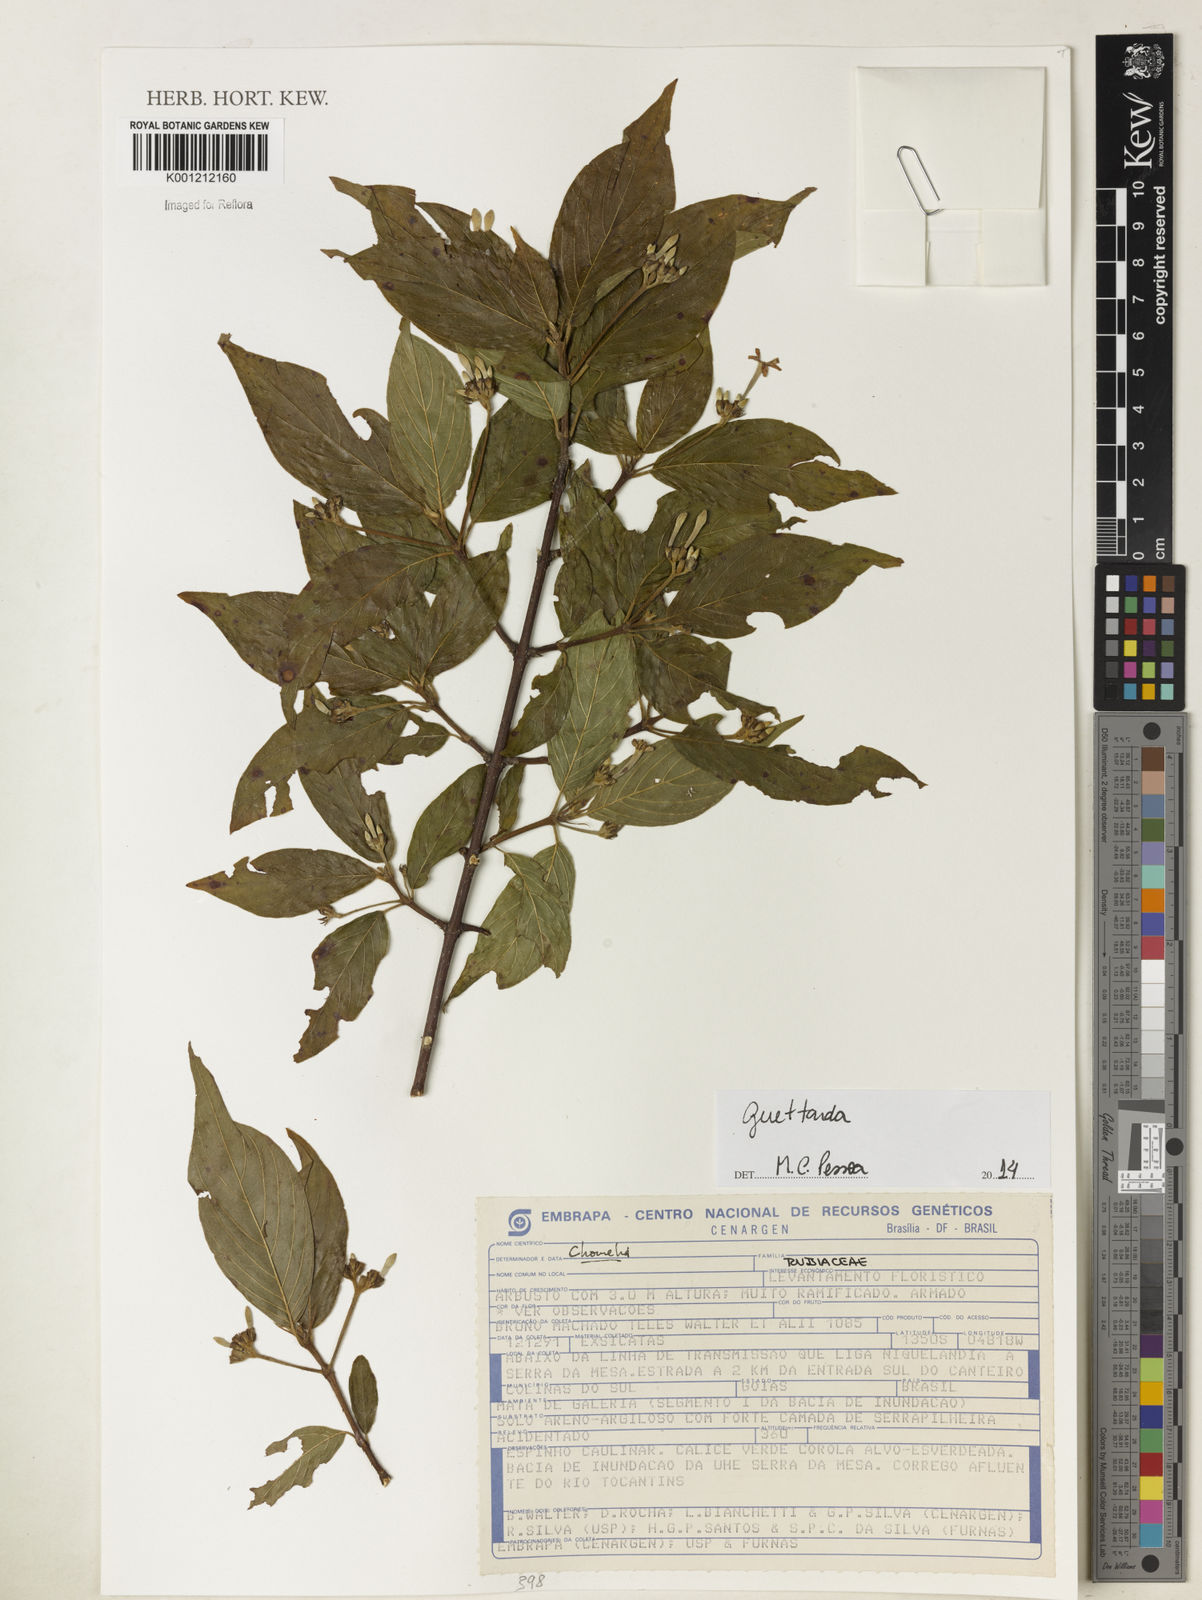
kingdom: Plantae
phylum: Tracheophyta
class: Magnoliopsida
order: Gentianales
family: Rubiaceae
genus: Guettarda
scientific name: Guettarda
